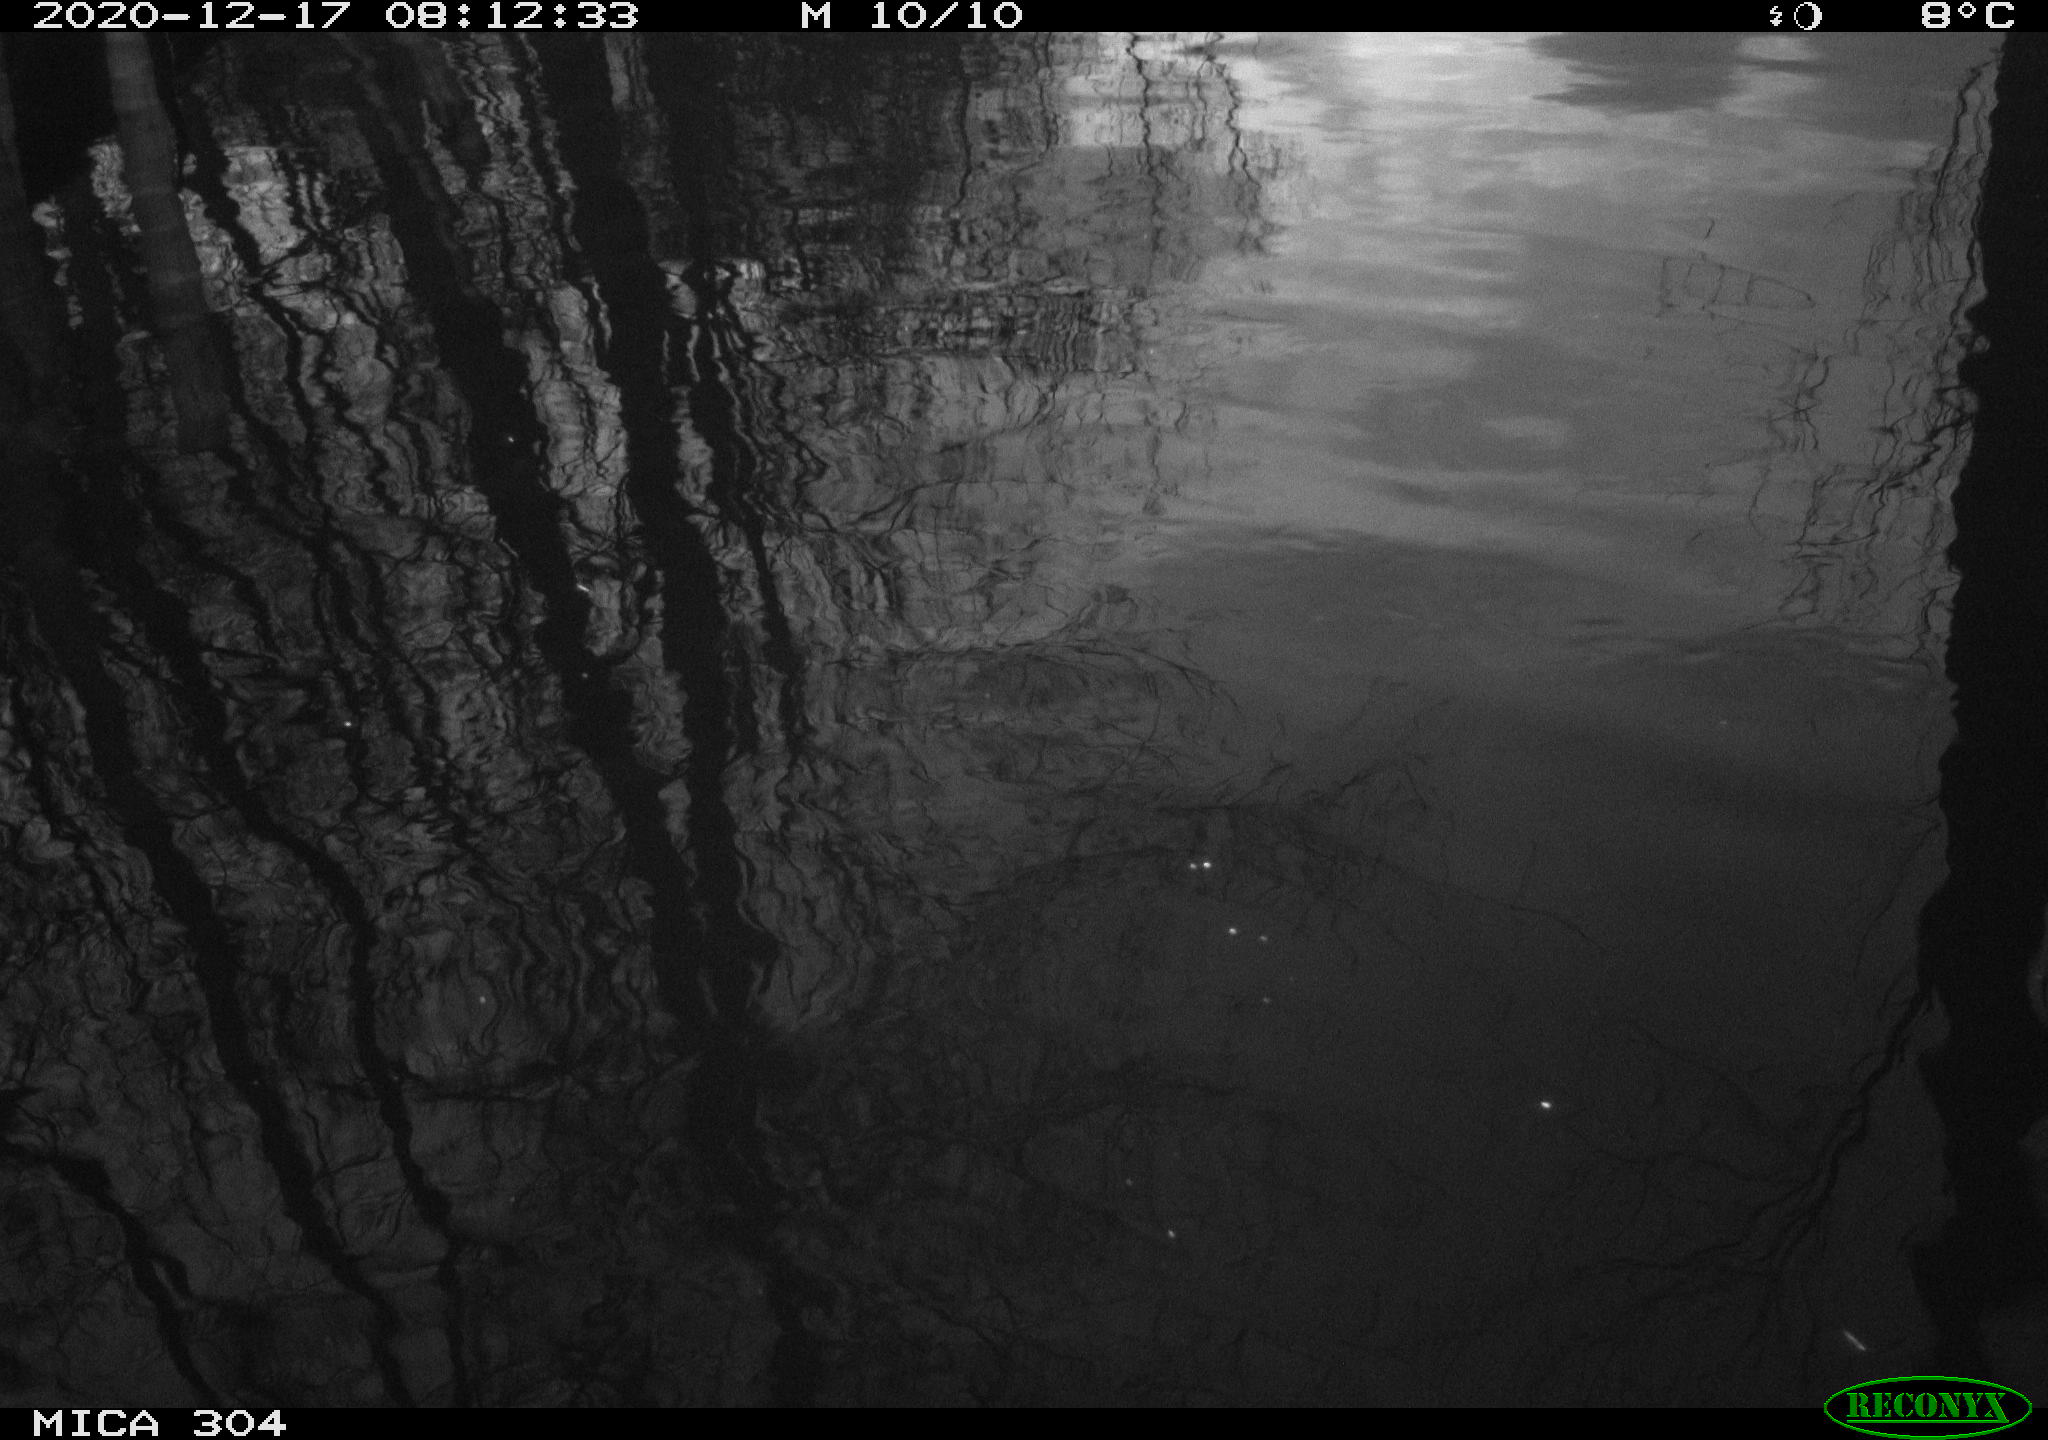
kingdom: Animalia
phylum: Chordata
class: Aves
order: Gruiformes
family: Rallidae
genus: Gallinula
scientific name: Gallinula chloropus
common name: Common moorhen
